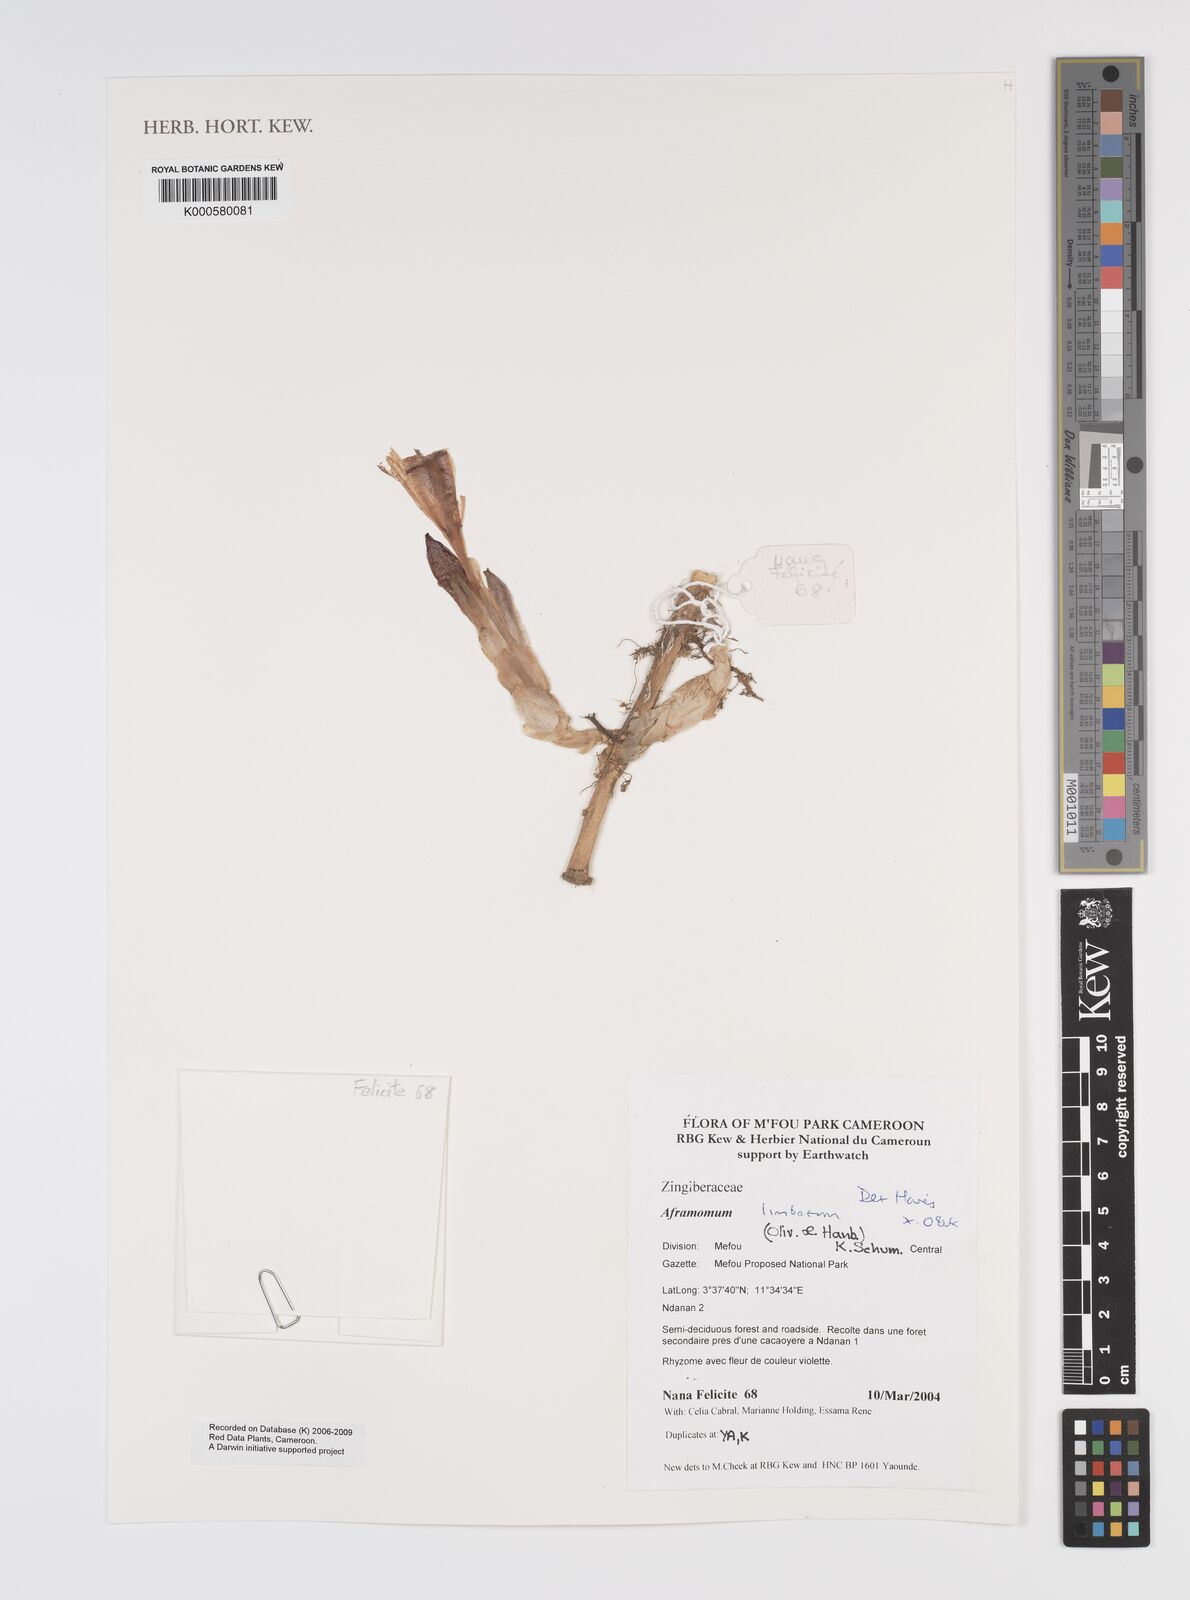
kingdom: Plantae
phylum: Tracheophyta
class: Liliopsida
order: Zingiberales
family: Zingiberaceae
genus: Aframomum
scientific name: Aframomum limbatum
